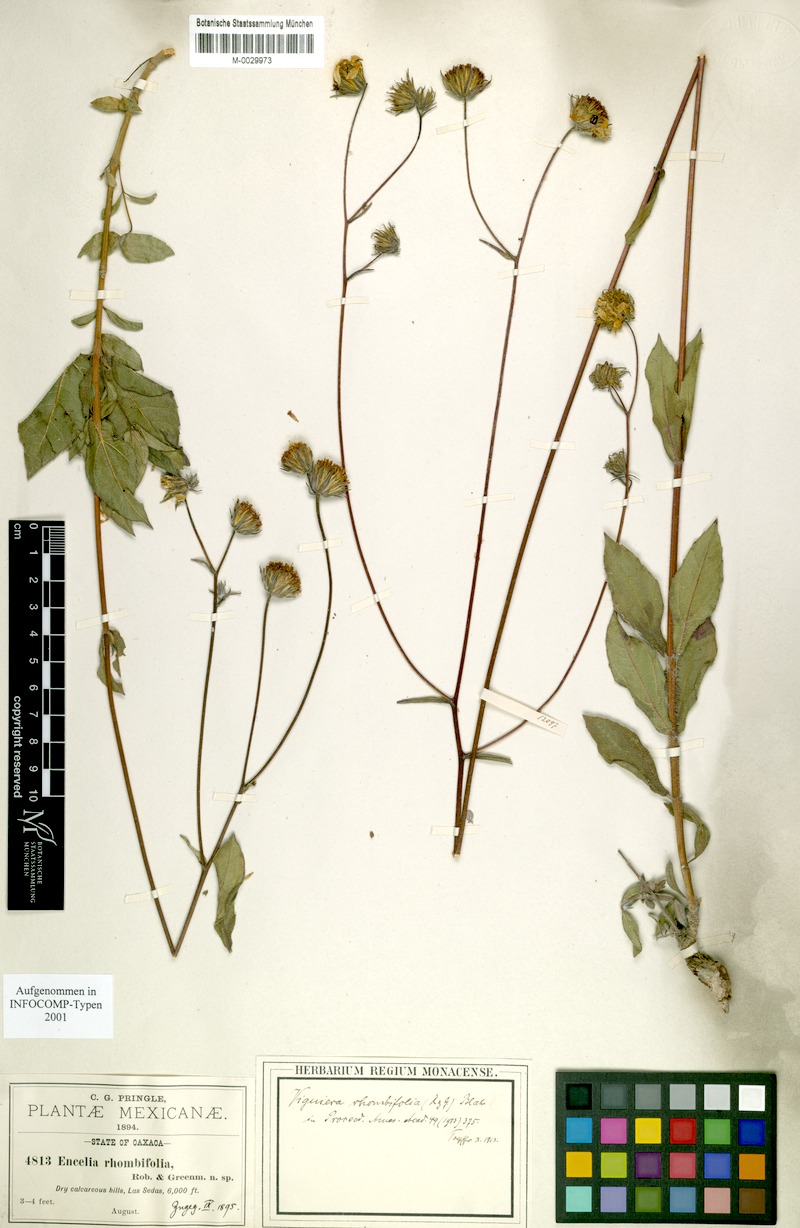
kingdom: Plantae
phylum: Tracheophyta
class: Magnoliopsida
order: Asterales
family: Asteraceae
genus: Simsia
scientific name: Simsia rhombifolia
